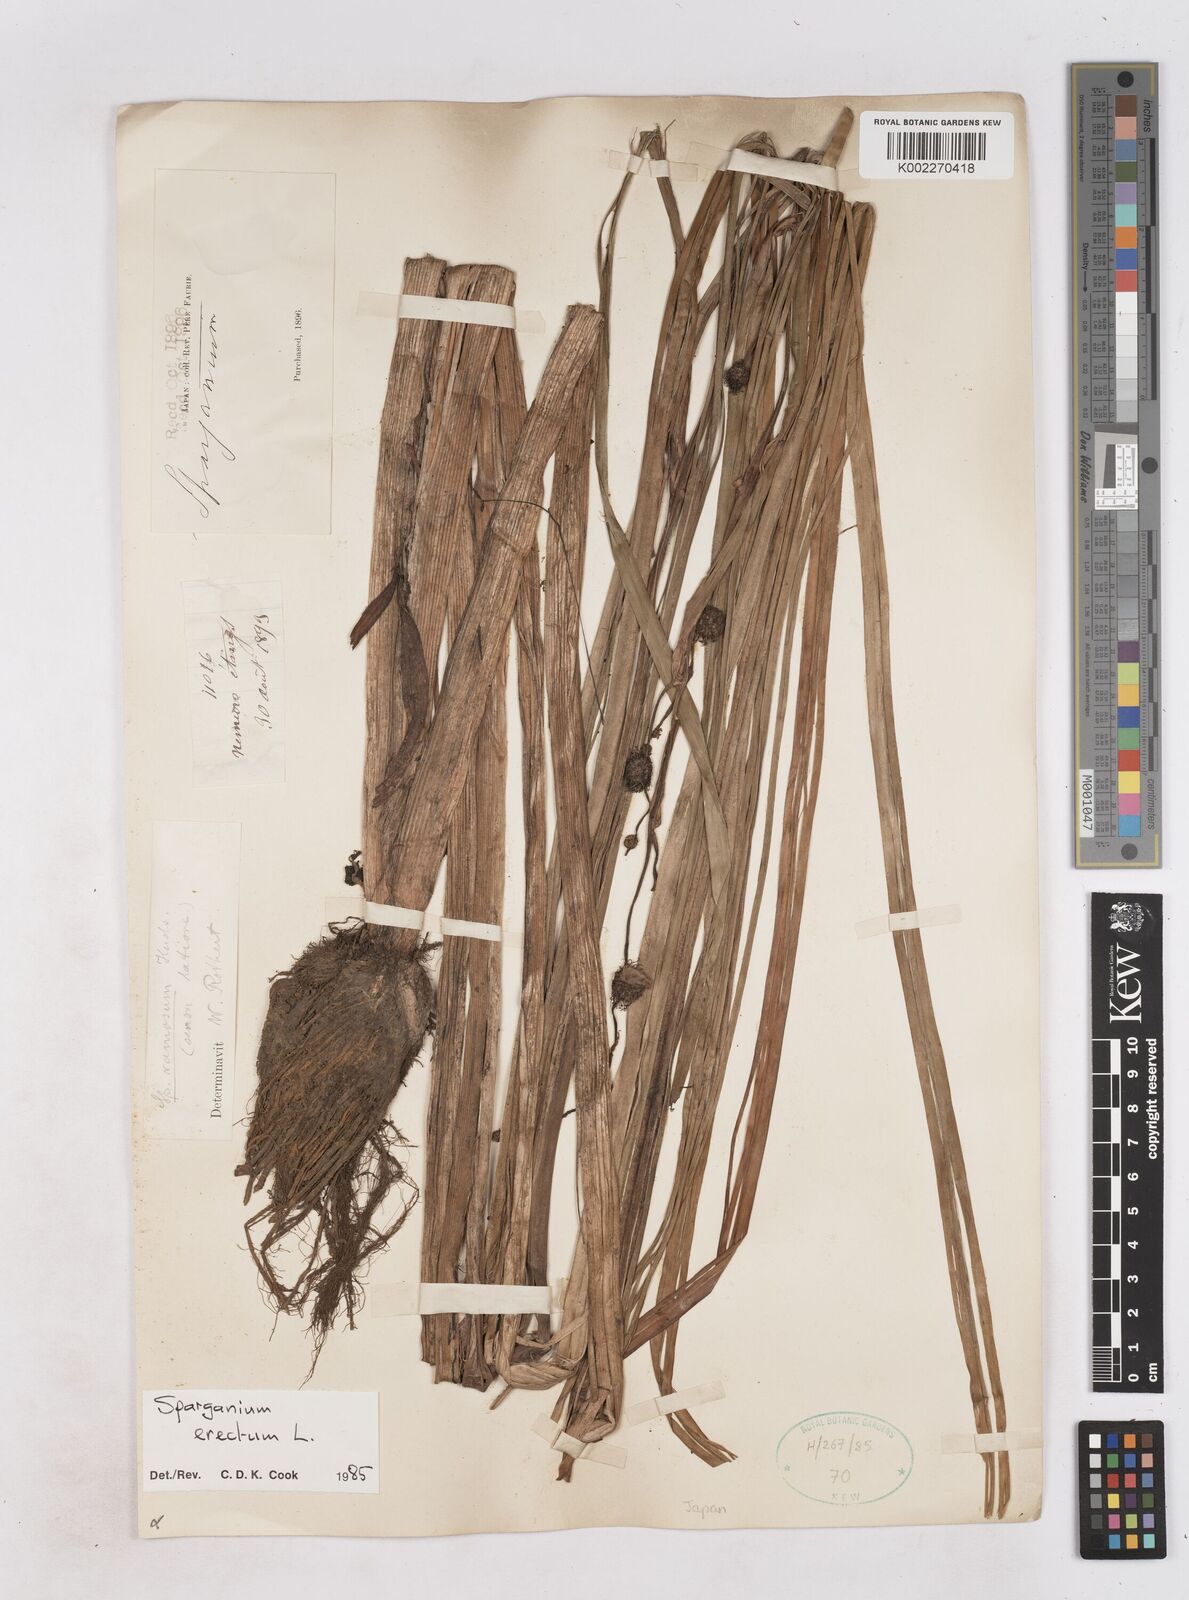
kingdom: Plantae
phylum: Tracheophyta
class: Liliopsida
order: Poales
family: Typhaceae
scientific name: Typhaceae
